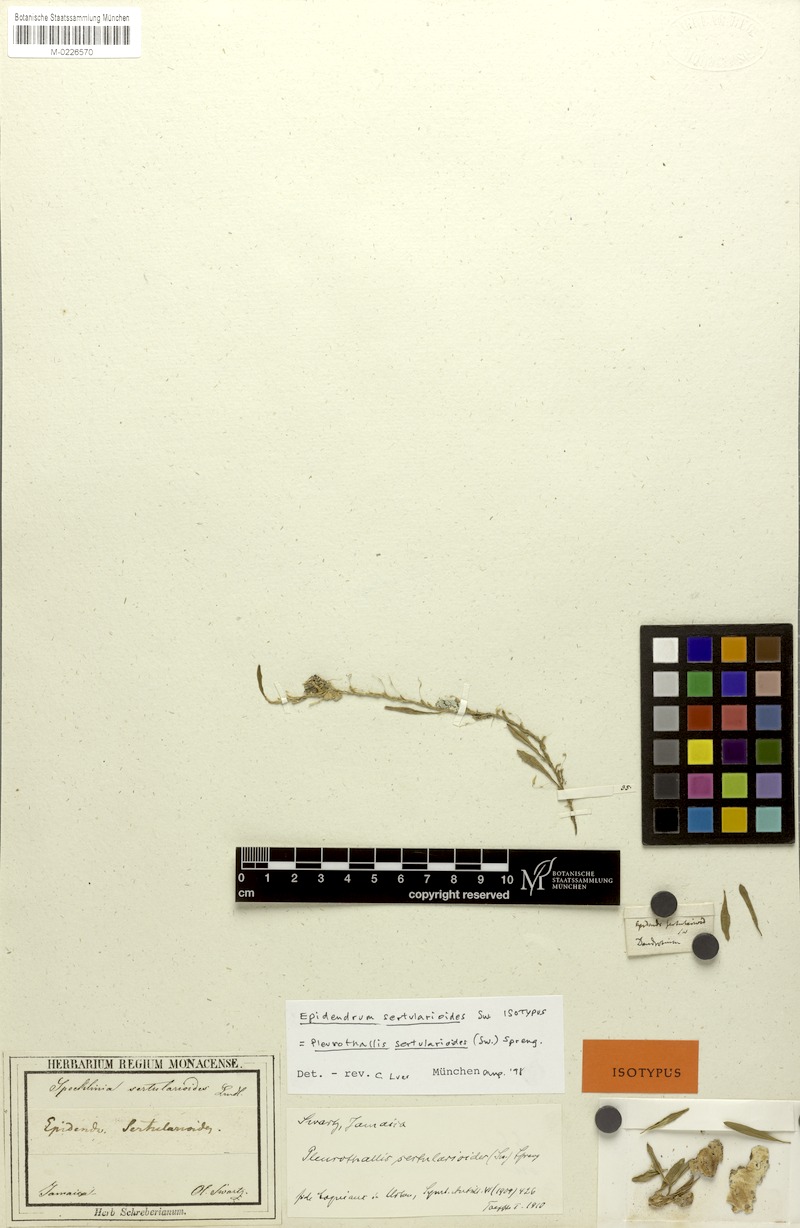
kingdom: Plantae
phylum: Tracheophyta
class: Liliopsida
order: Asparagales
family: Orchidaceae
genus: Anathallis
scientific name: Anathallis sertularioides
